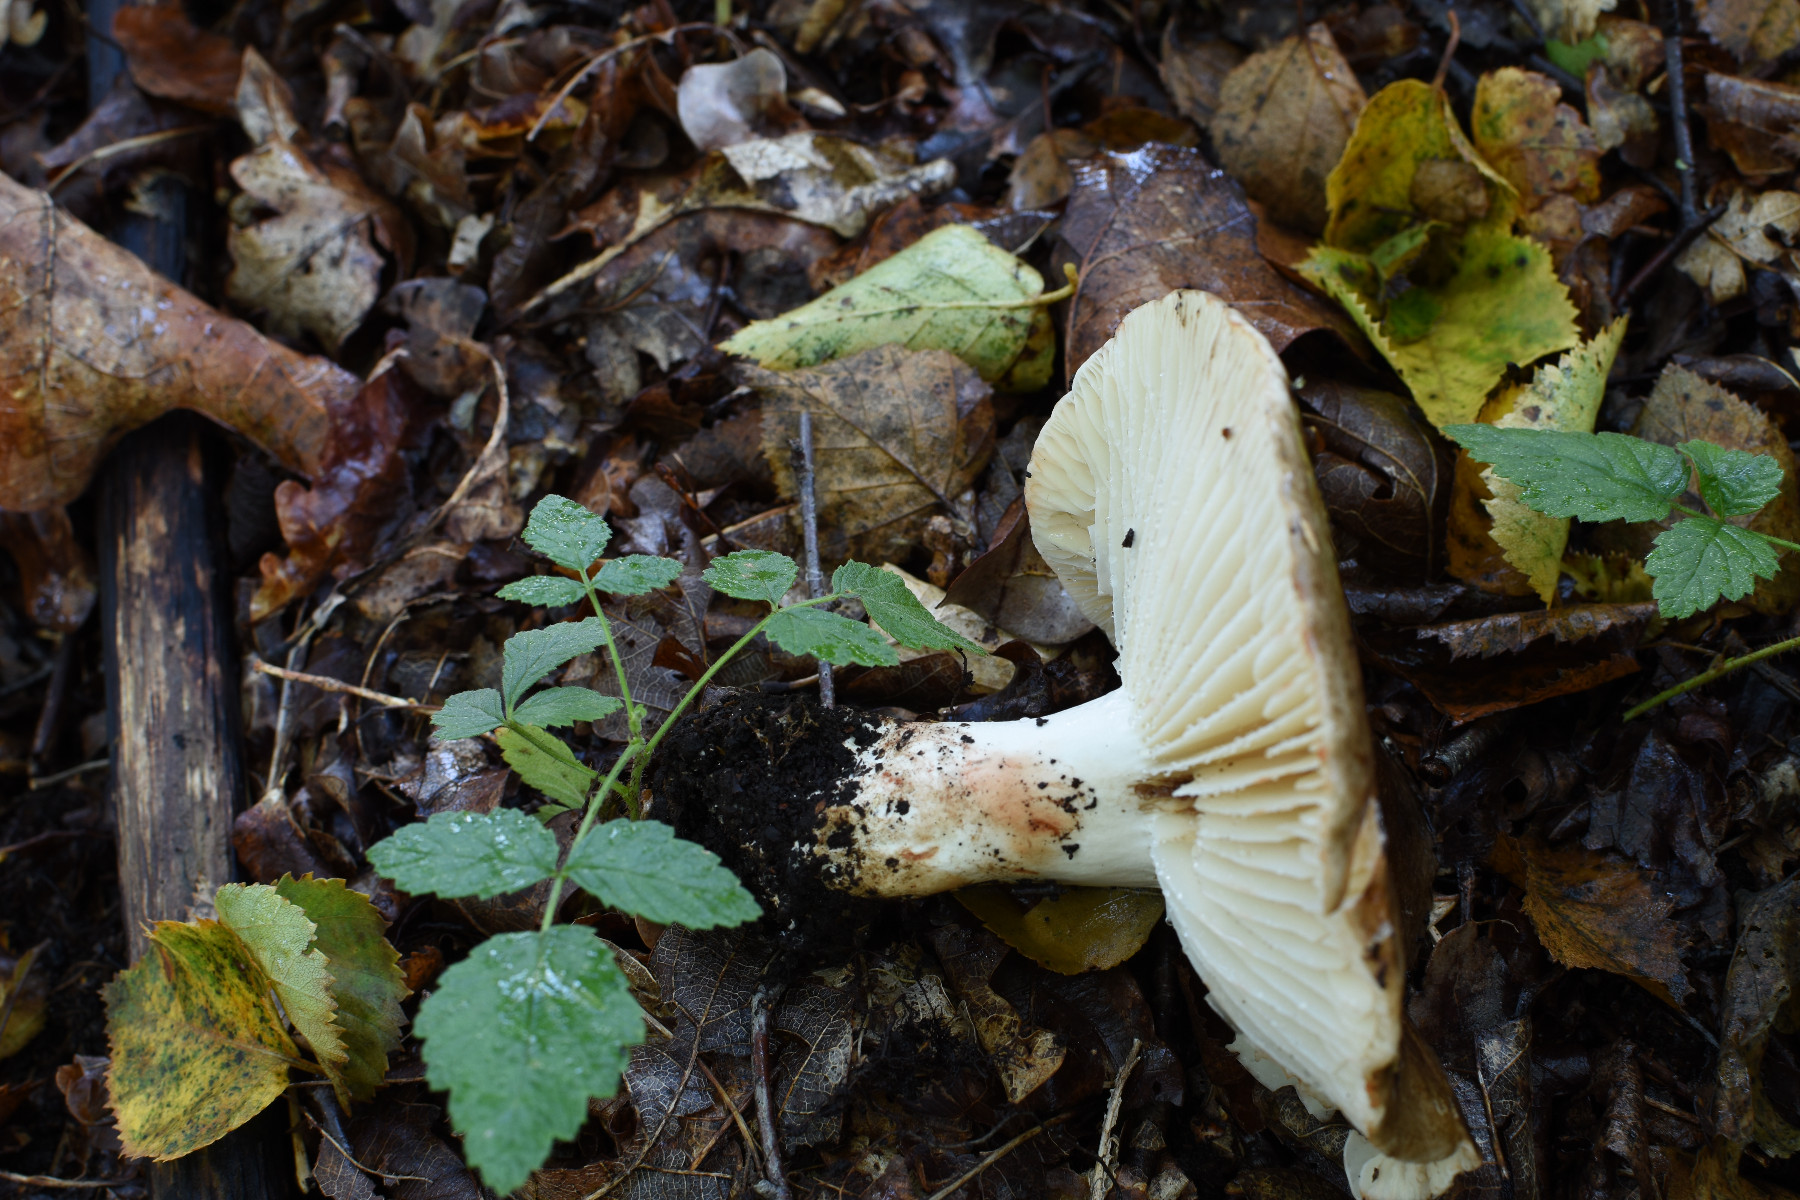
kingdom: Fungi
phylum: Basidiomycota
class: Agaricomycetes
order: Russulales
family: Russulaceae
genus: Russula
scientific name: Russula adusta
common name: sværtende skørhat
